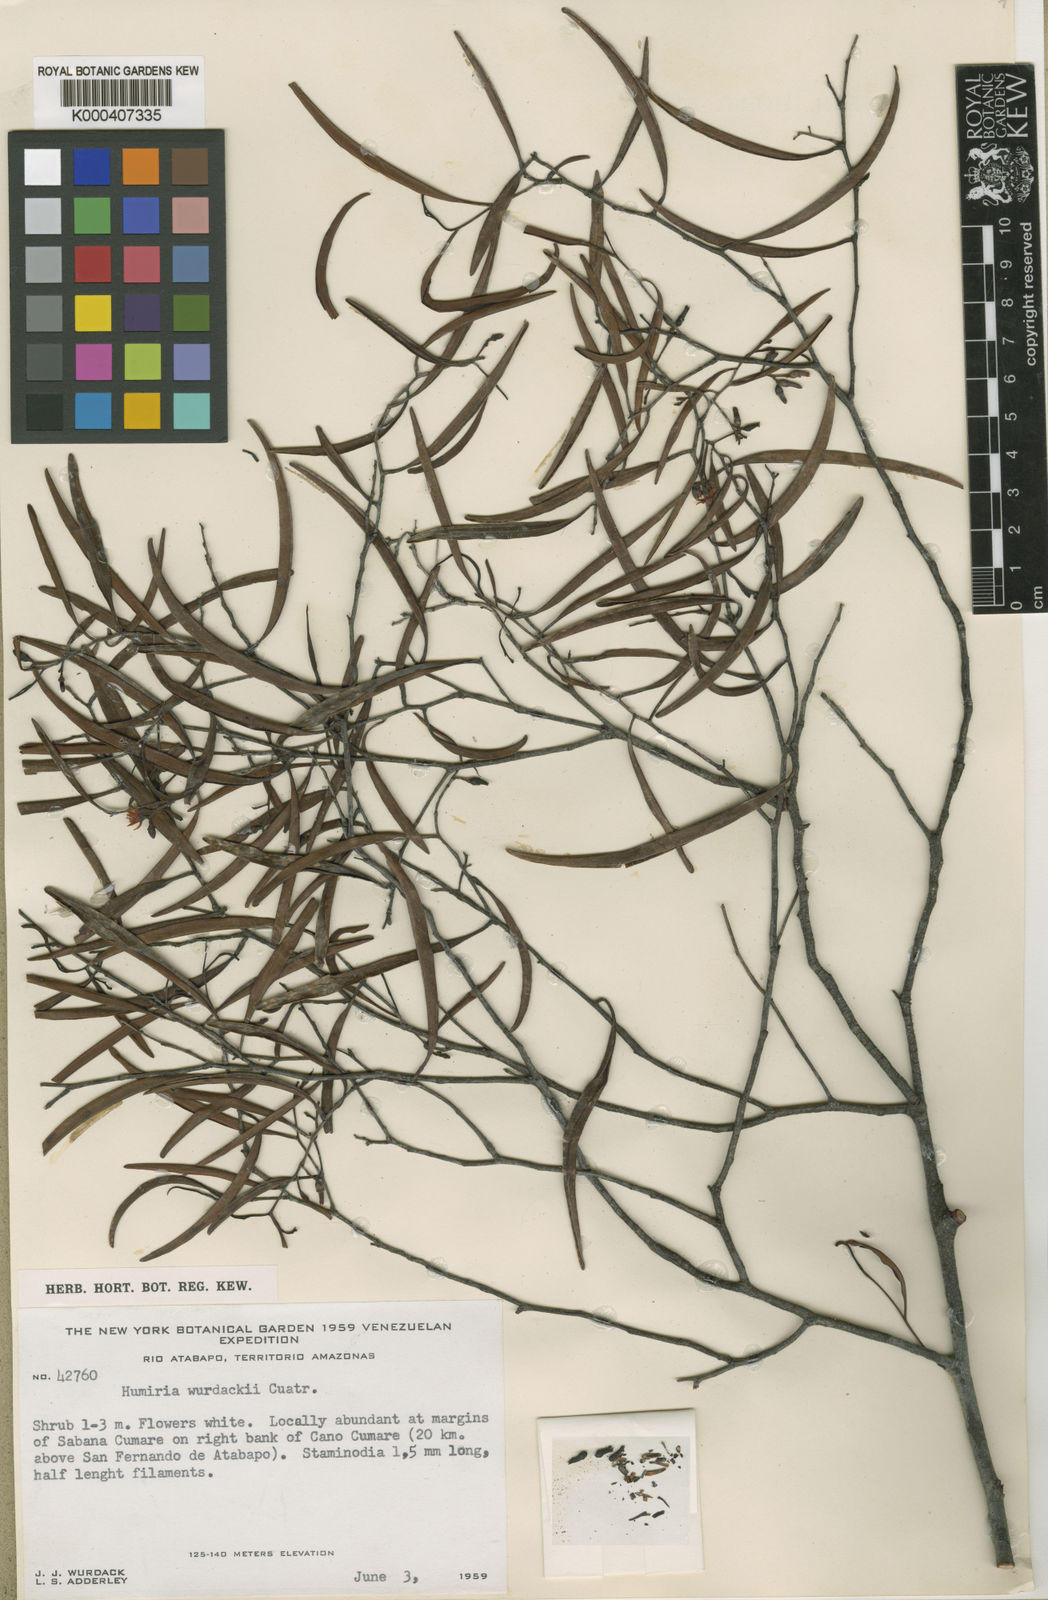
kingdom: Plantae
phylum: Tracheophyta
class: Magnoliopsida
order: Malpighiales
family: Humiriaceae
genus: Humiria
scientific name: Humiria wurdackii
